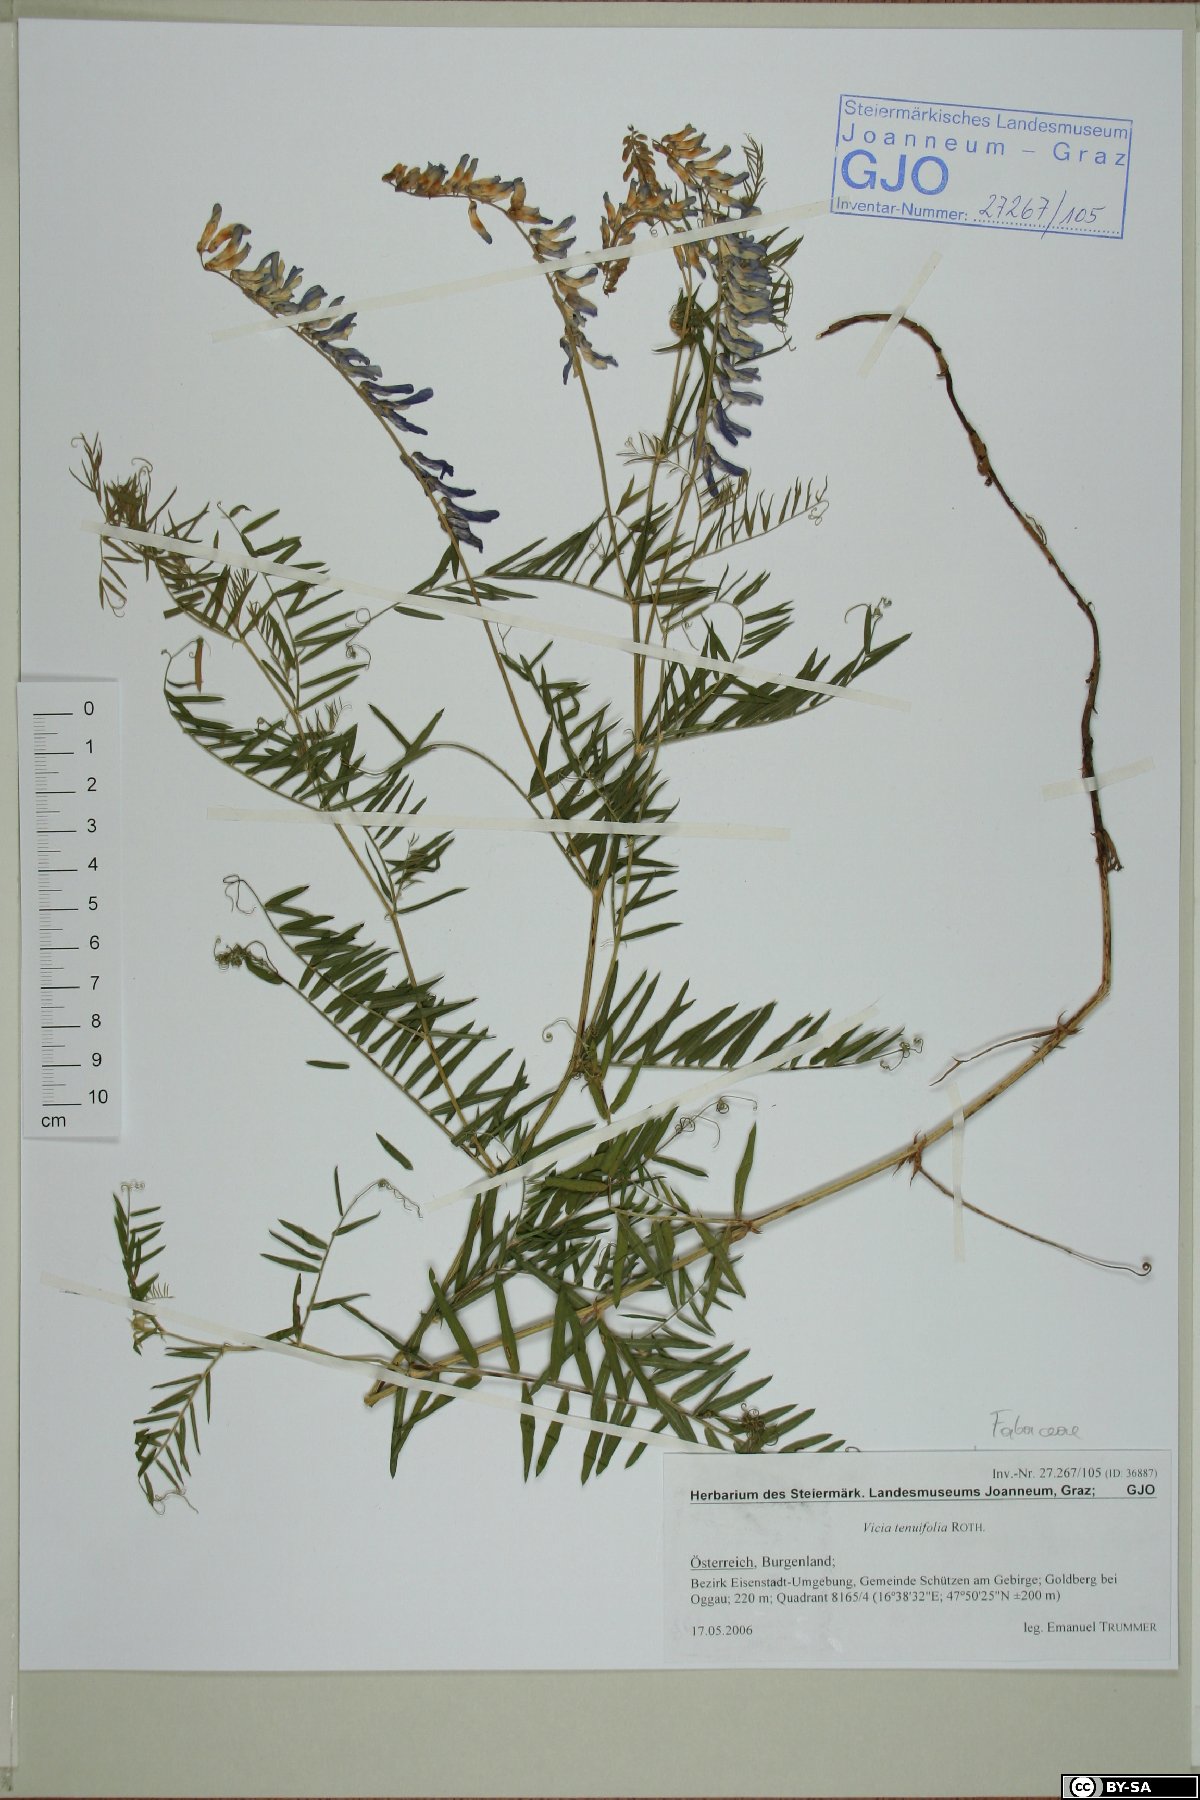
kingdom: Plantae
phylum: Tracheophyta
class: Magnoliopsida
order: Fabales
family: Fabaceae
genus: Vicia
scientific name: Vicia tenuifolia
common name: Fine-leaved vetch
